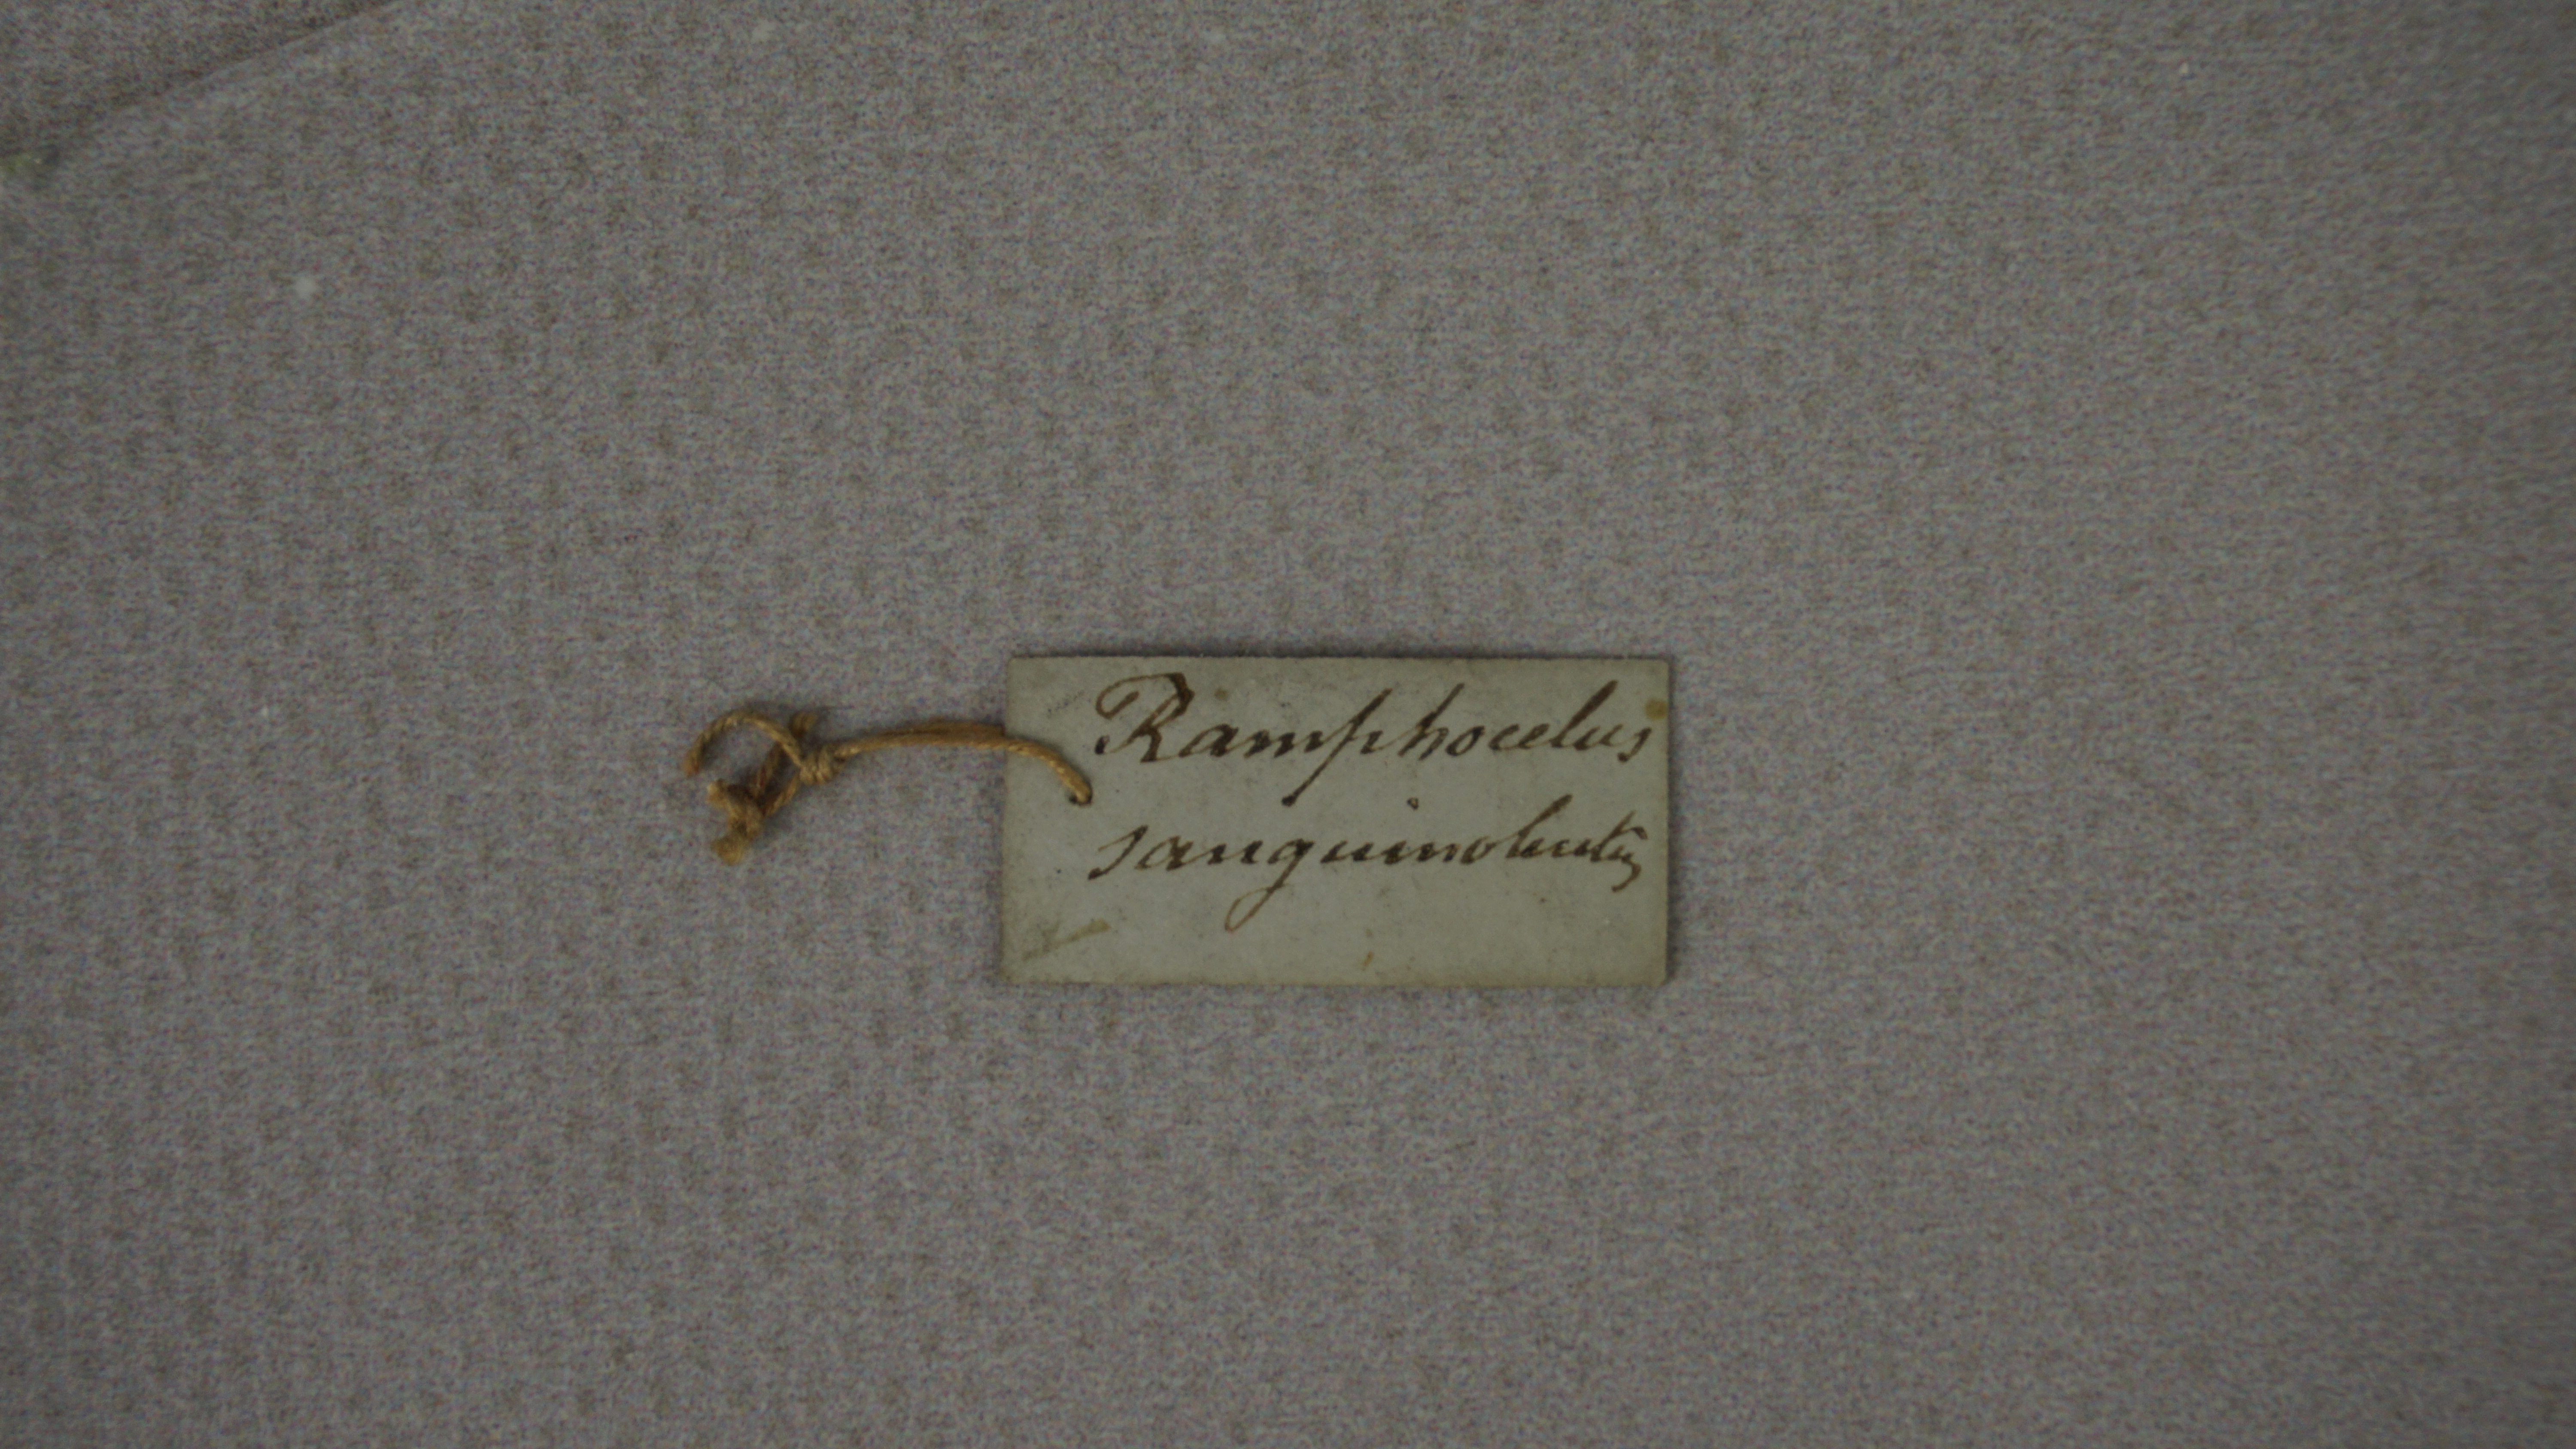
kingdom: Animalia
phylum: Chordata
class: Aves
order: Passeriformes
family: Thraupidae
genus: Ramphocelus
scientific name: Ramphocelus sanguinolentus
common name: Crimson-collared tanager
